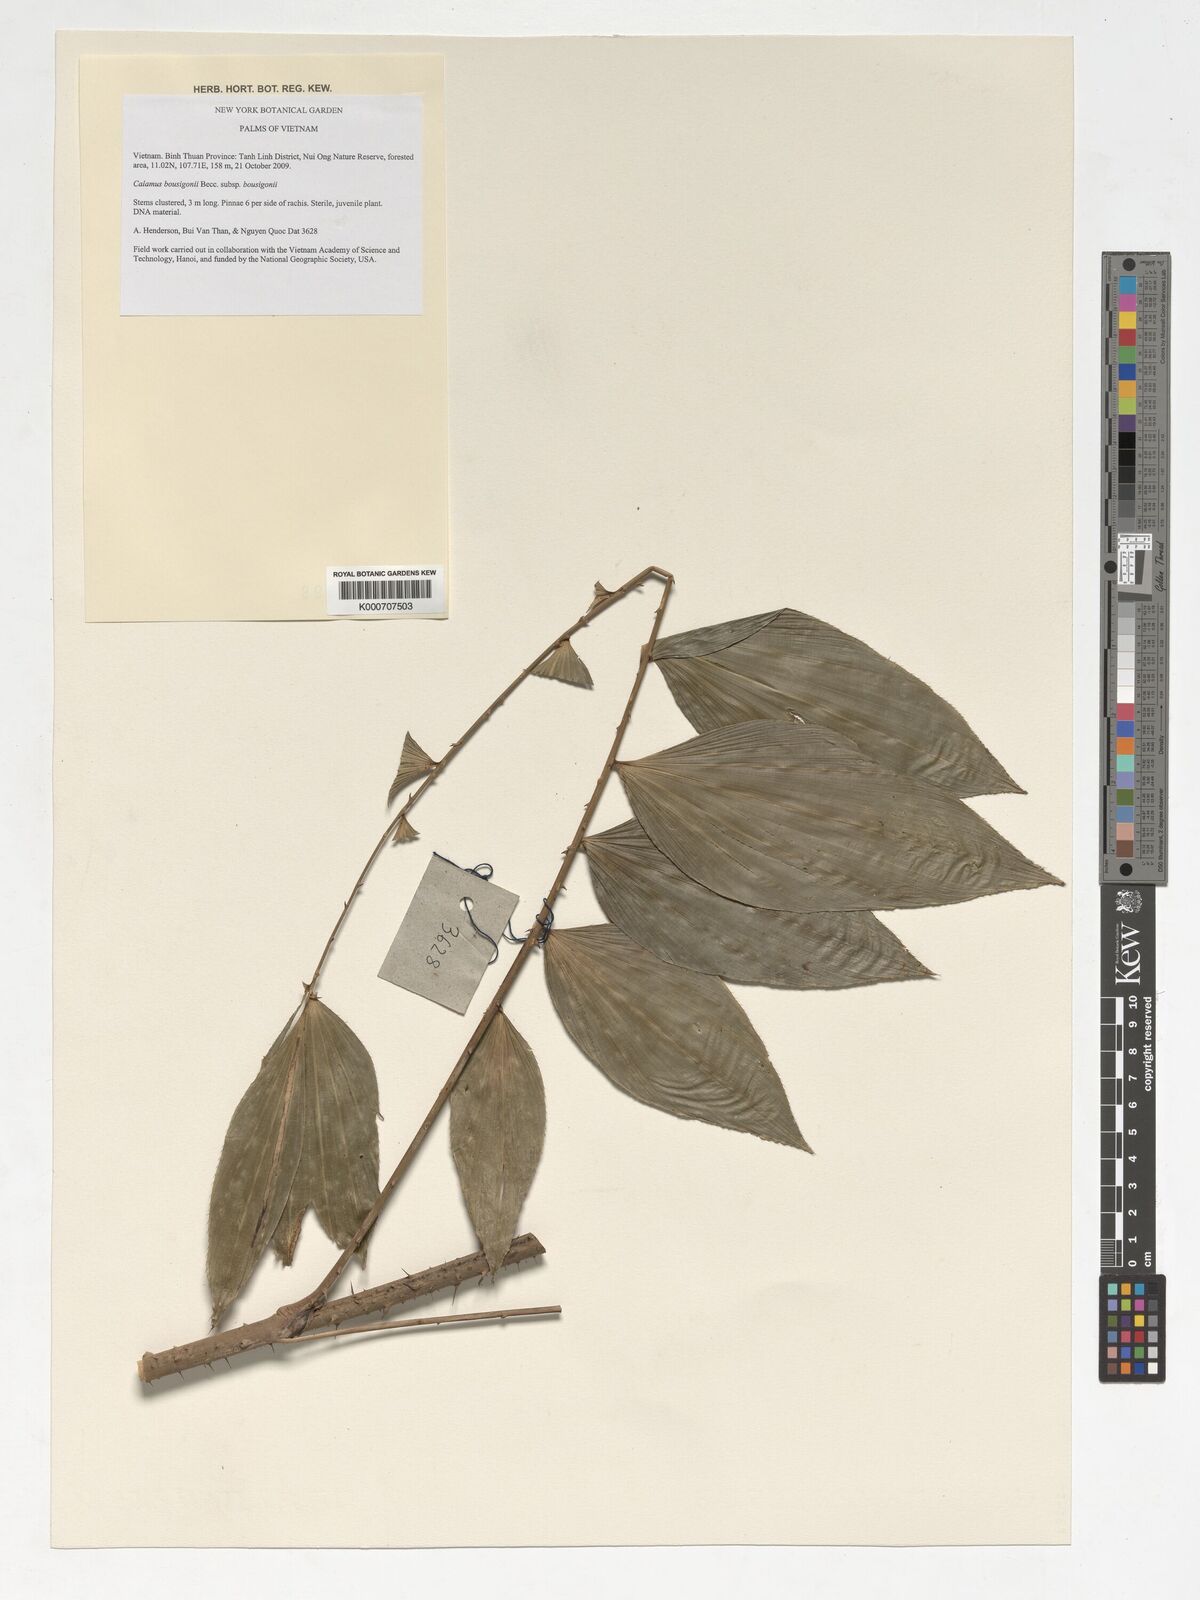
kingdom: Plantae
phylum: Tracheophyta
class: Liliopsida
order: Arecales
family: Arecaceae
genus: Calamus
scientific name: Calamus bousigonii
